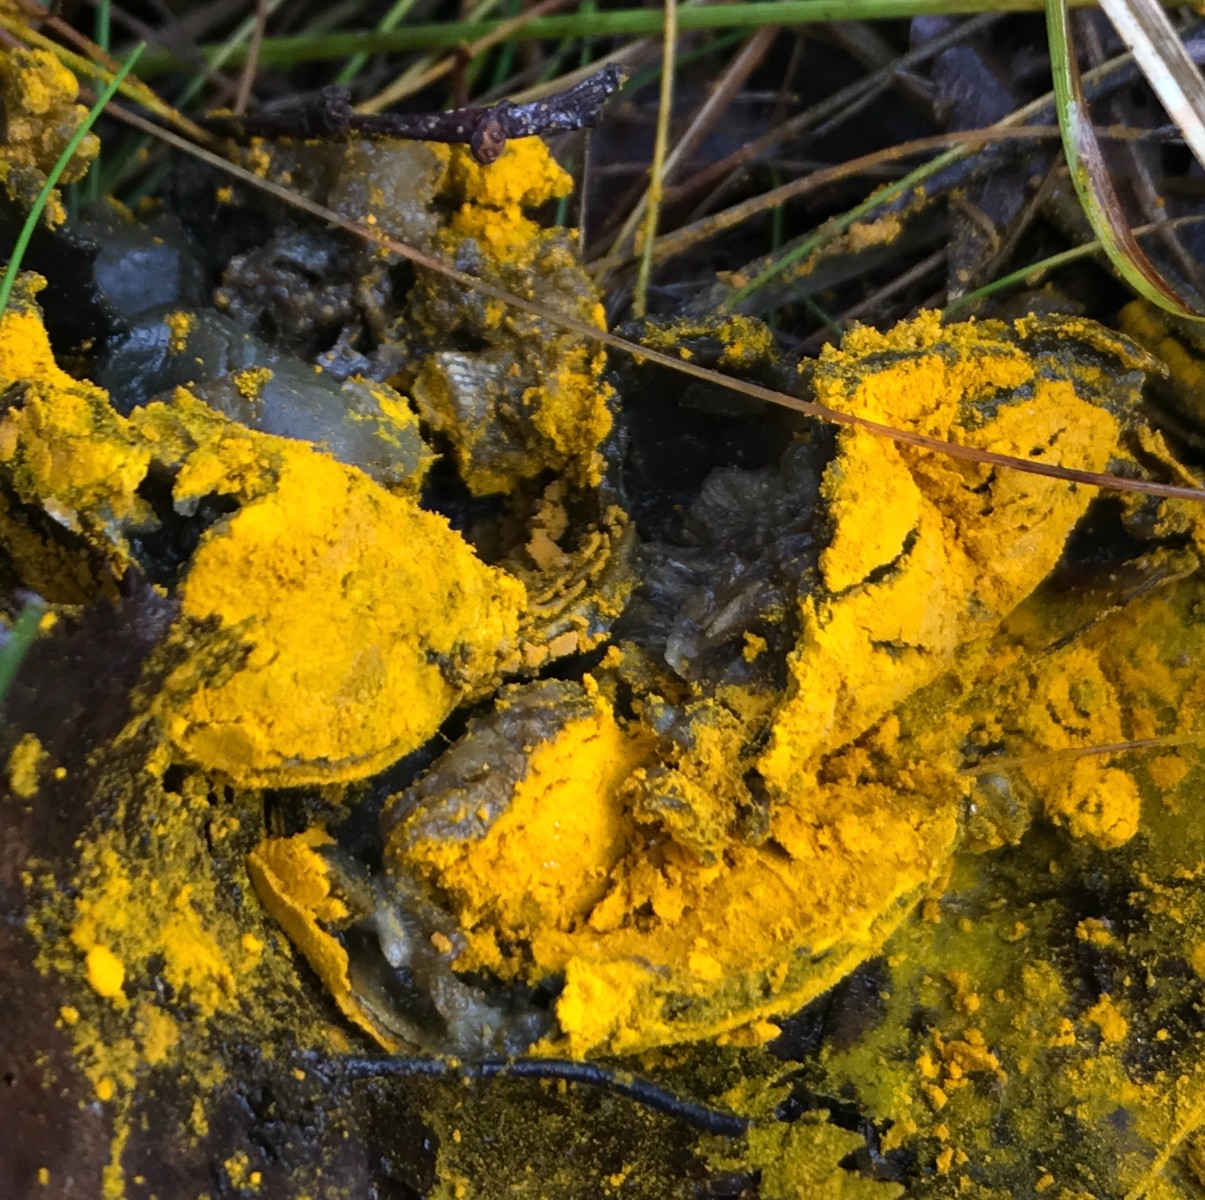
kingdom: Fungi
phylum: Ascomycota
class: Sordariomycetes
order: Hypocreales
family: Hypocreaceae
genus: Hypomyces
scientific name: Hypomyces
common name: snylteskorpe
